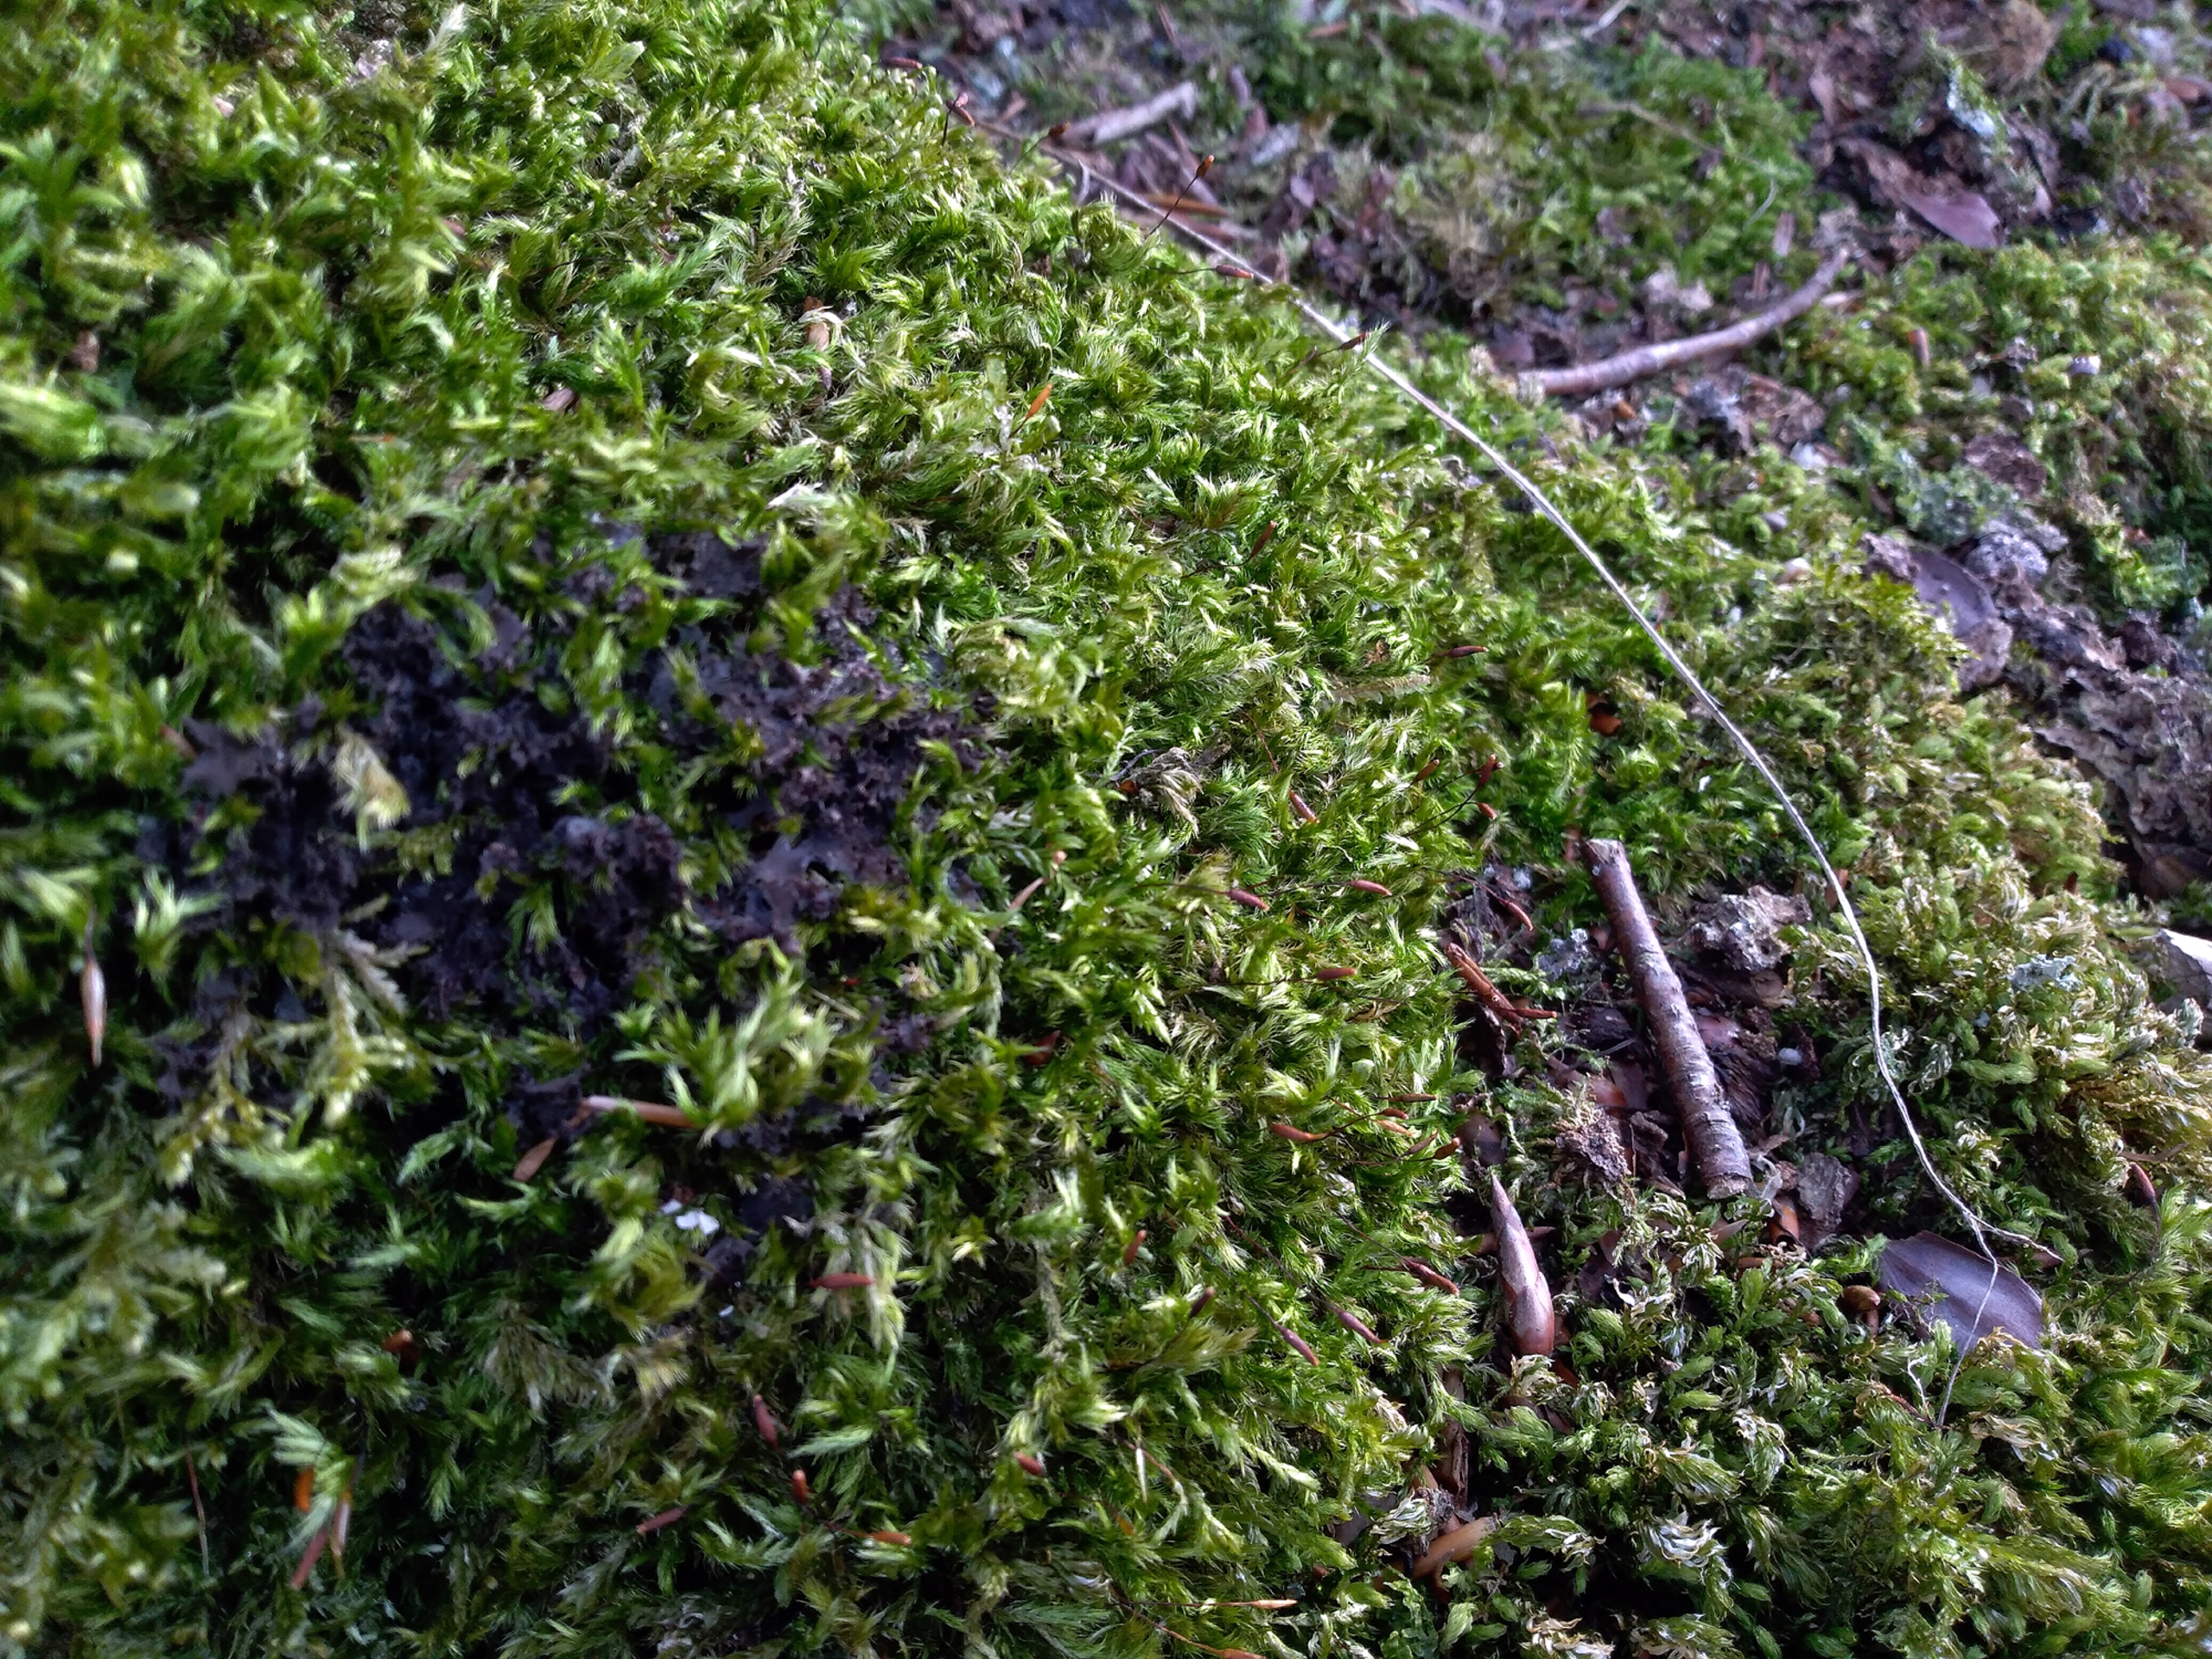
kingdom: Plantae
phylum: Bryophyta
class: Bryopsida
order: Hypnales
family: Brachytheciaceae
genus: Homalothecium
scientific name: Homalothecium sericeum
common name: Krybende silkemos
